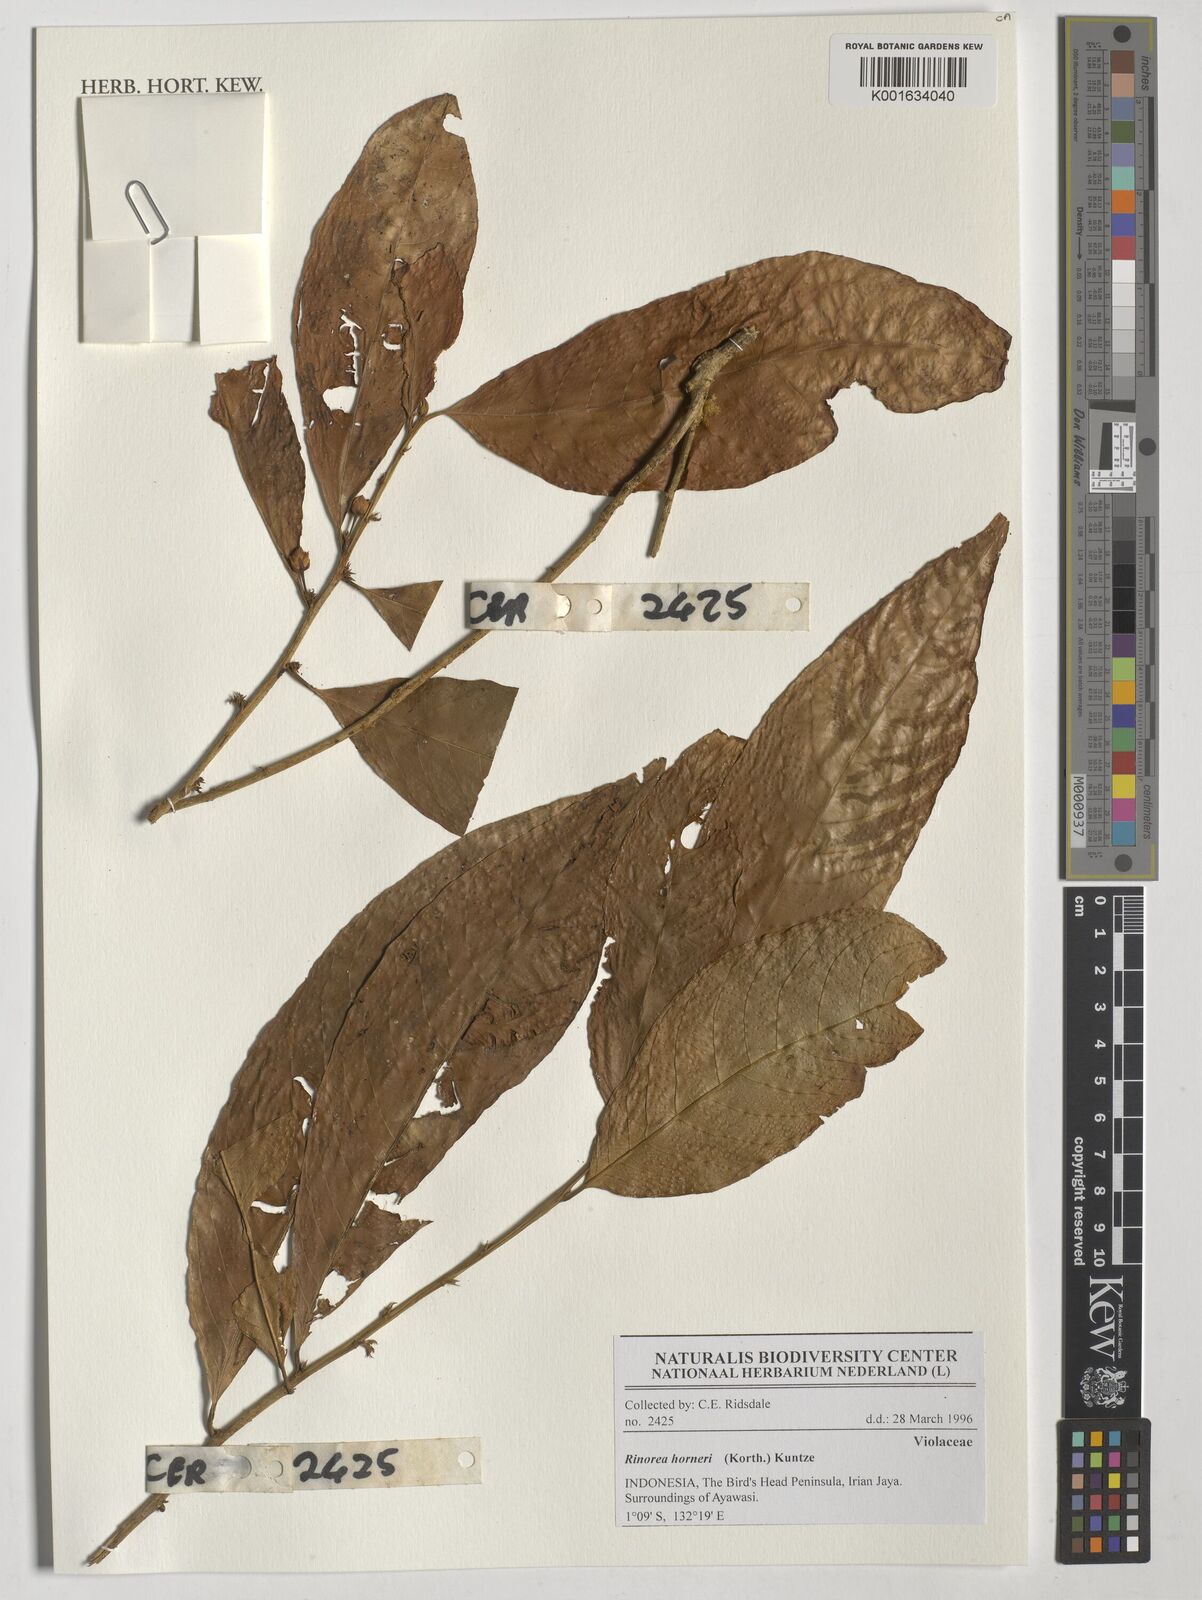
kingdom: Plantae
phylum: Tracheophyta
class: Magnoliopsida
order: Malpighiales
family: Violaceae
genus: Rinorea
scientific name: Rinorea horneri
